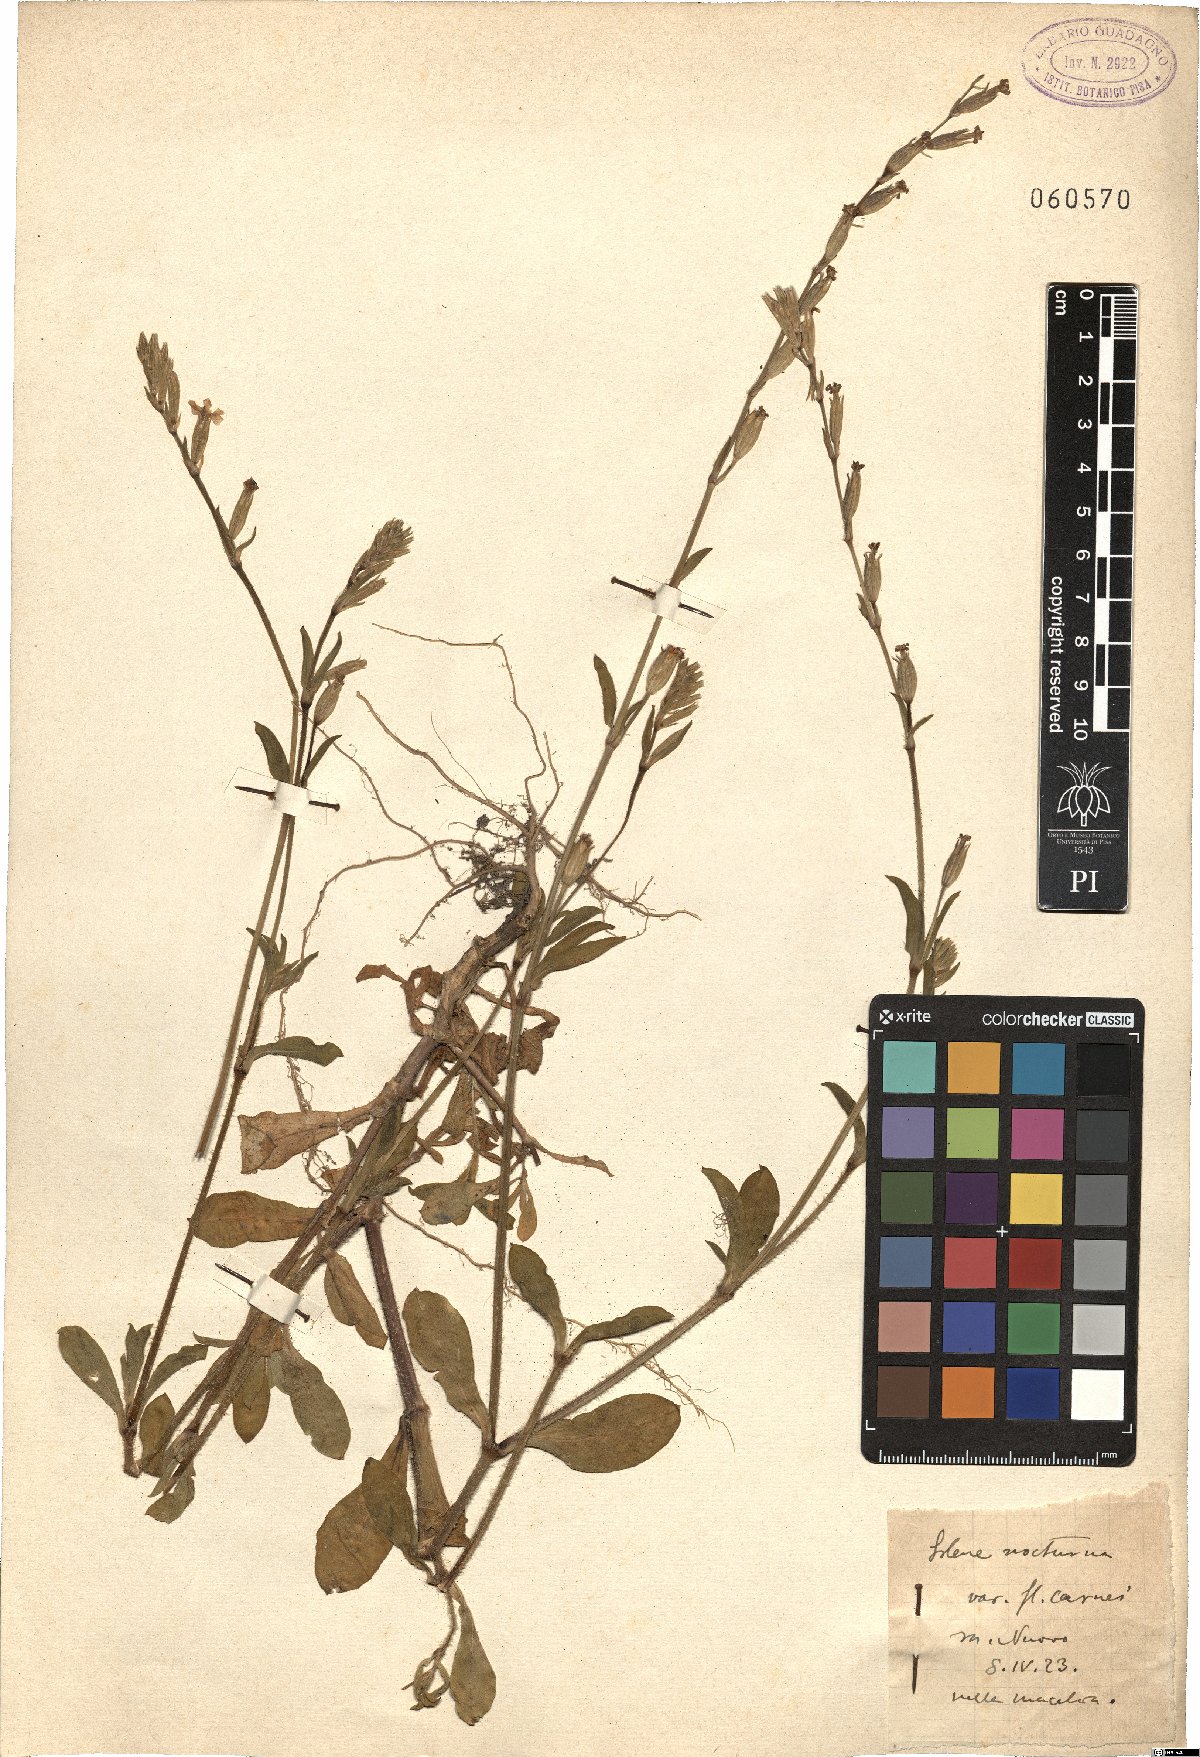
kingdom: Plantae
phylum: Tracheophyta
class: Magnoliopsida
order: Caryophyllales
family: Caryophyllaceae
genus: Silene
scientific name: Silene nocturna
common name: Mediterranean catchfly
